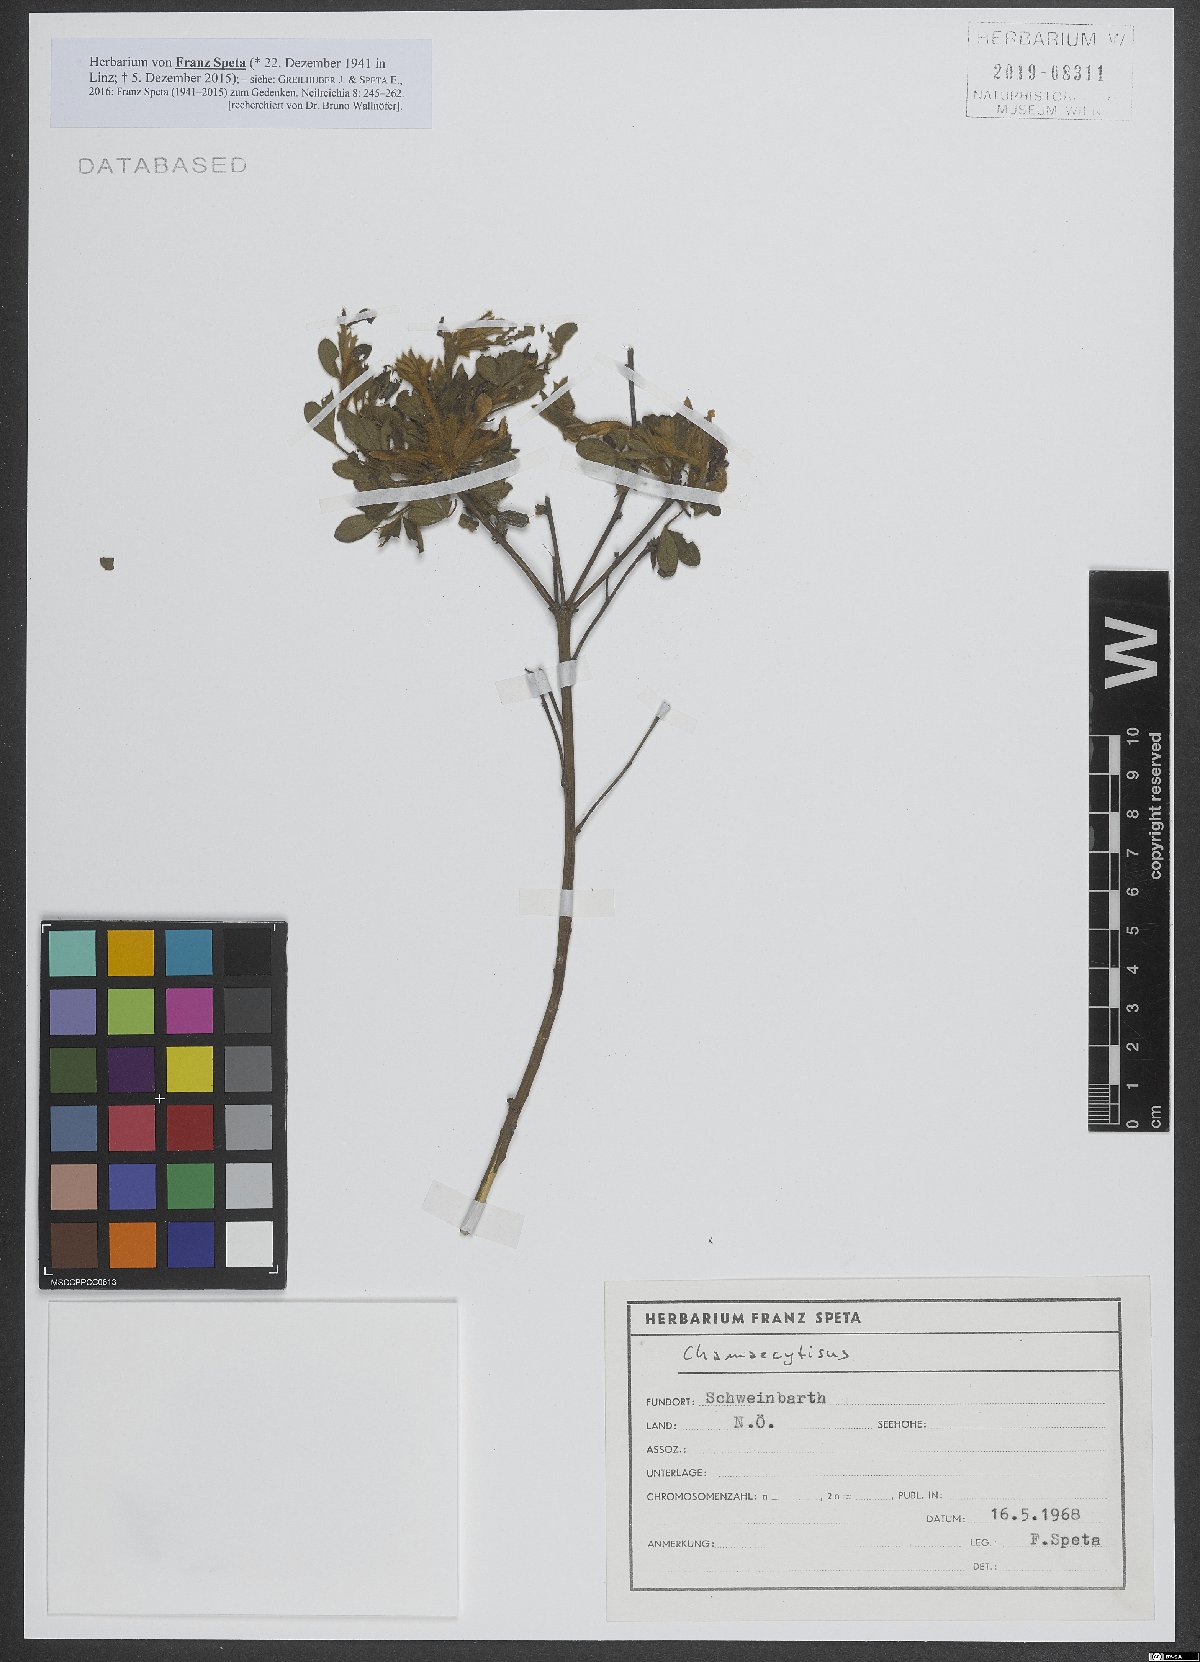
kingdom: Plantae
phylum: Tracheophyta
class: Magnoliopsida
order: Fabales
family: Fabaceae
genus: Chamaecytisus
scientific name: Chamaecytisus
